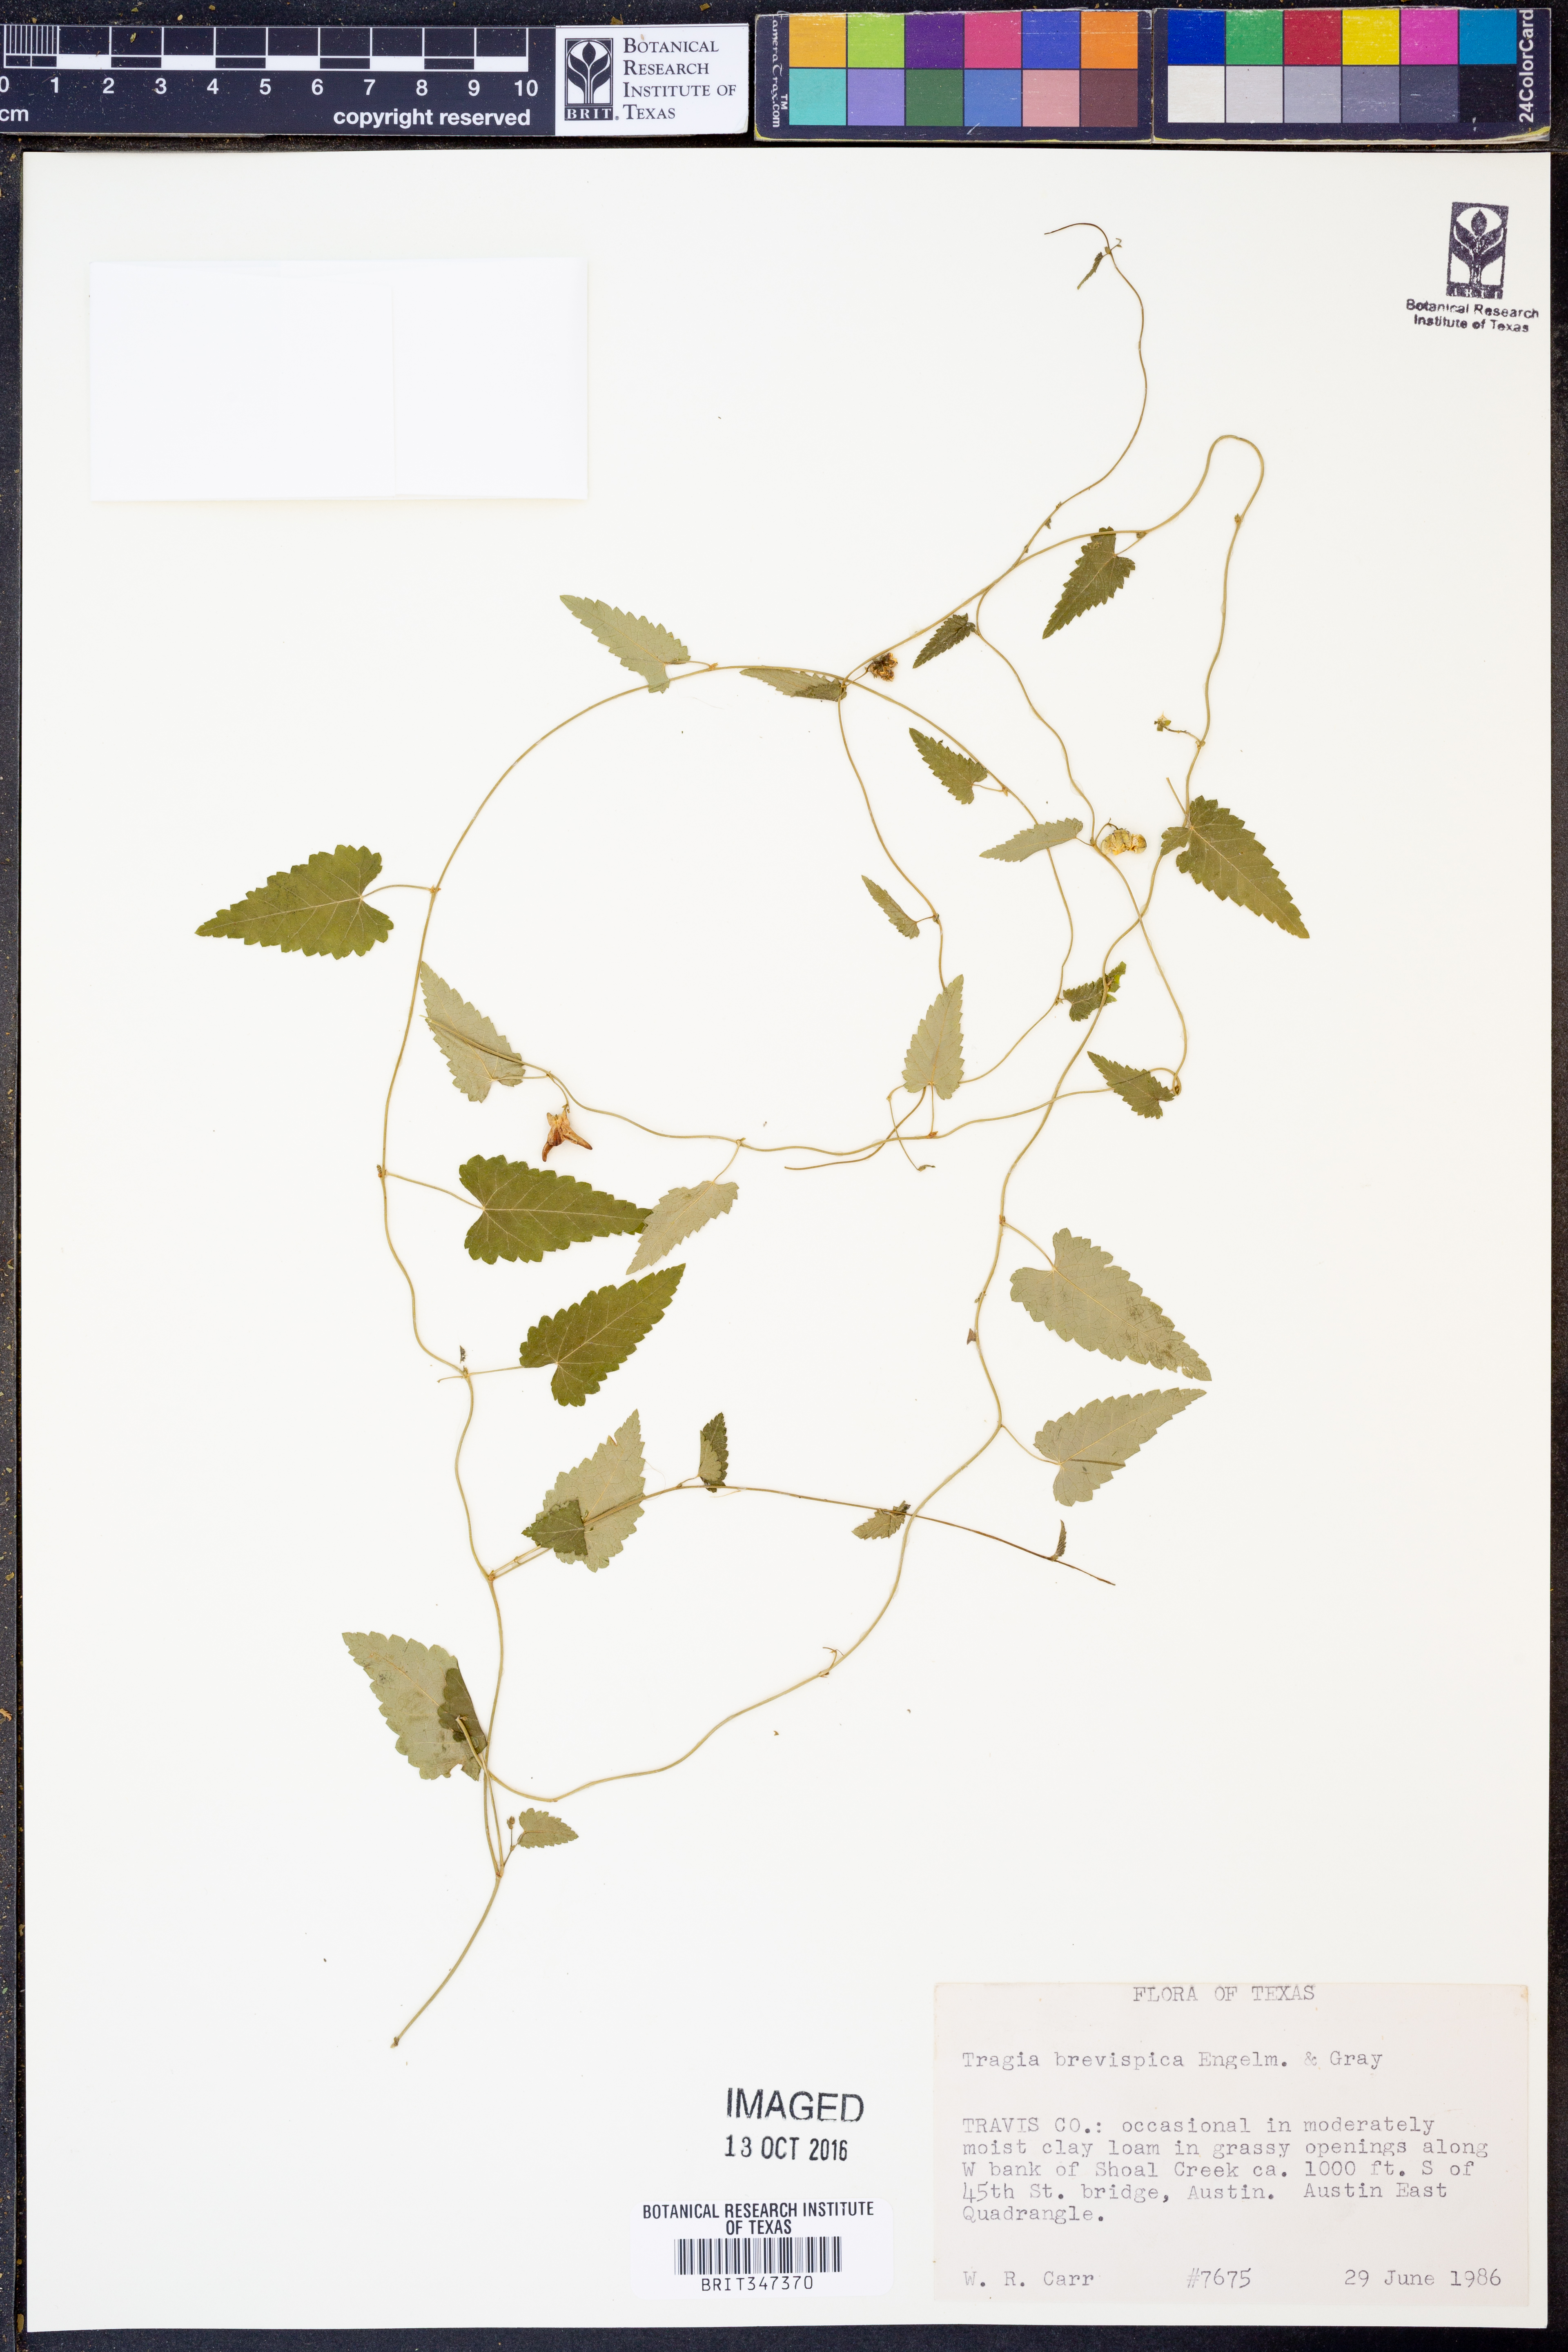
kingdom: Plantae
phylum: Tracheophyta
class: Magnoliopsida
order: Malpighiales
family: Euphorbiaceae
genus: Tragia
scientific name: Tragia brevispica
